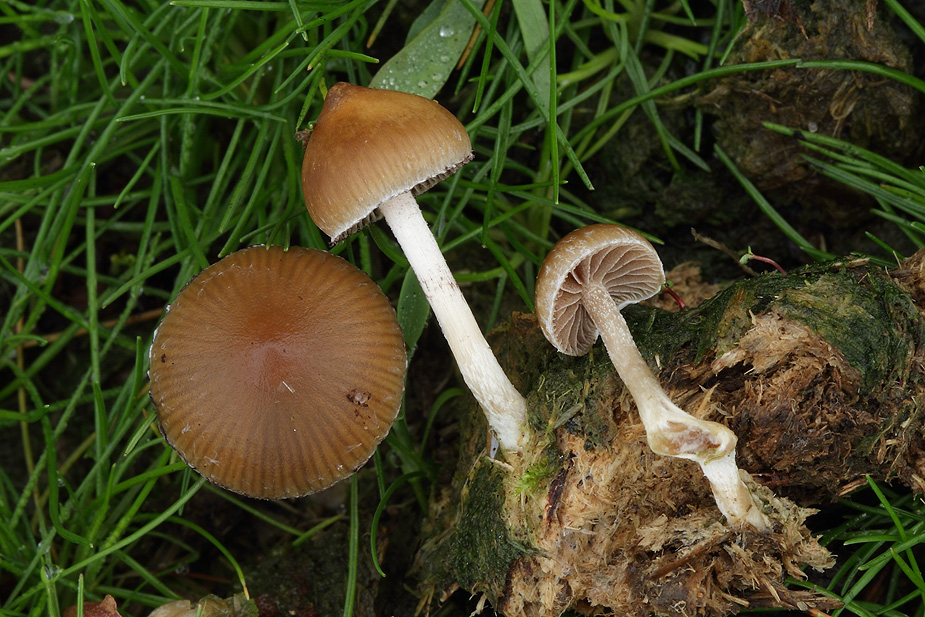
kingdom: Fungi
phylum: Basidiomycota
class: Agaricomycetes
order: Agaricales
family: Hymenogastraceae
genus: Psilocybe
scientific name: Psilocybe fimetaria
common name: prægtig nøgenhat
